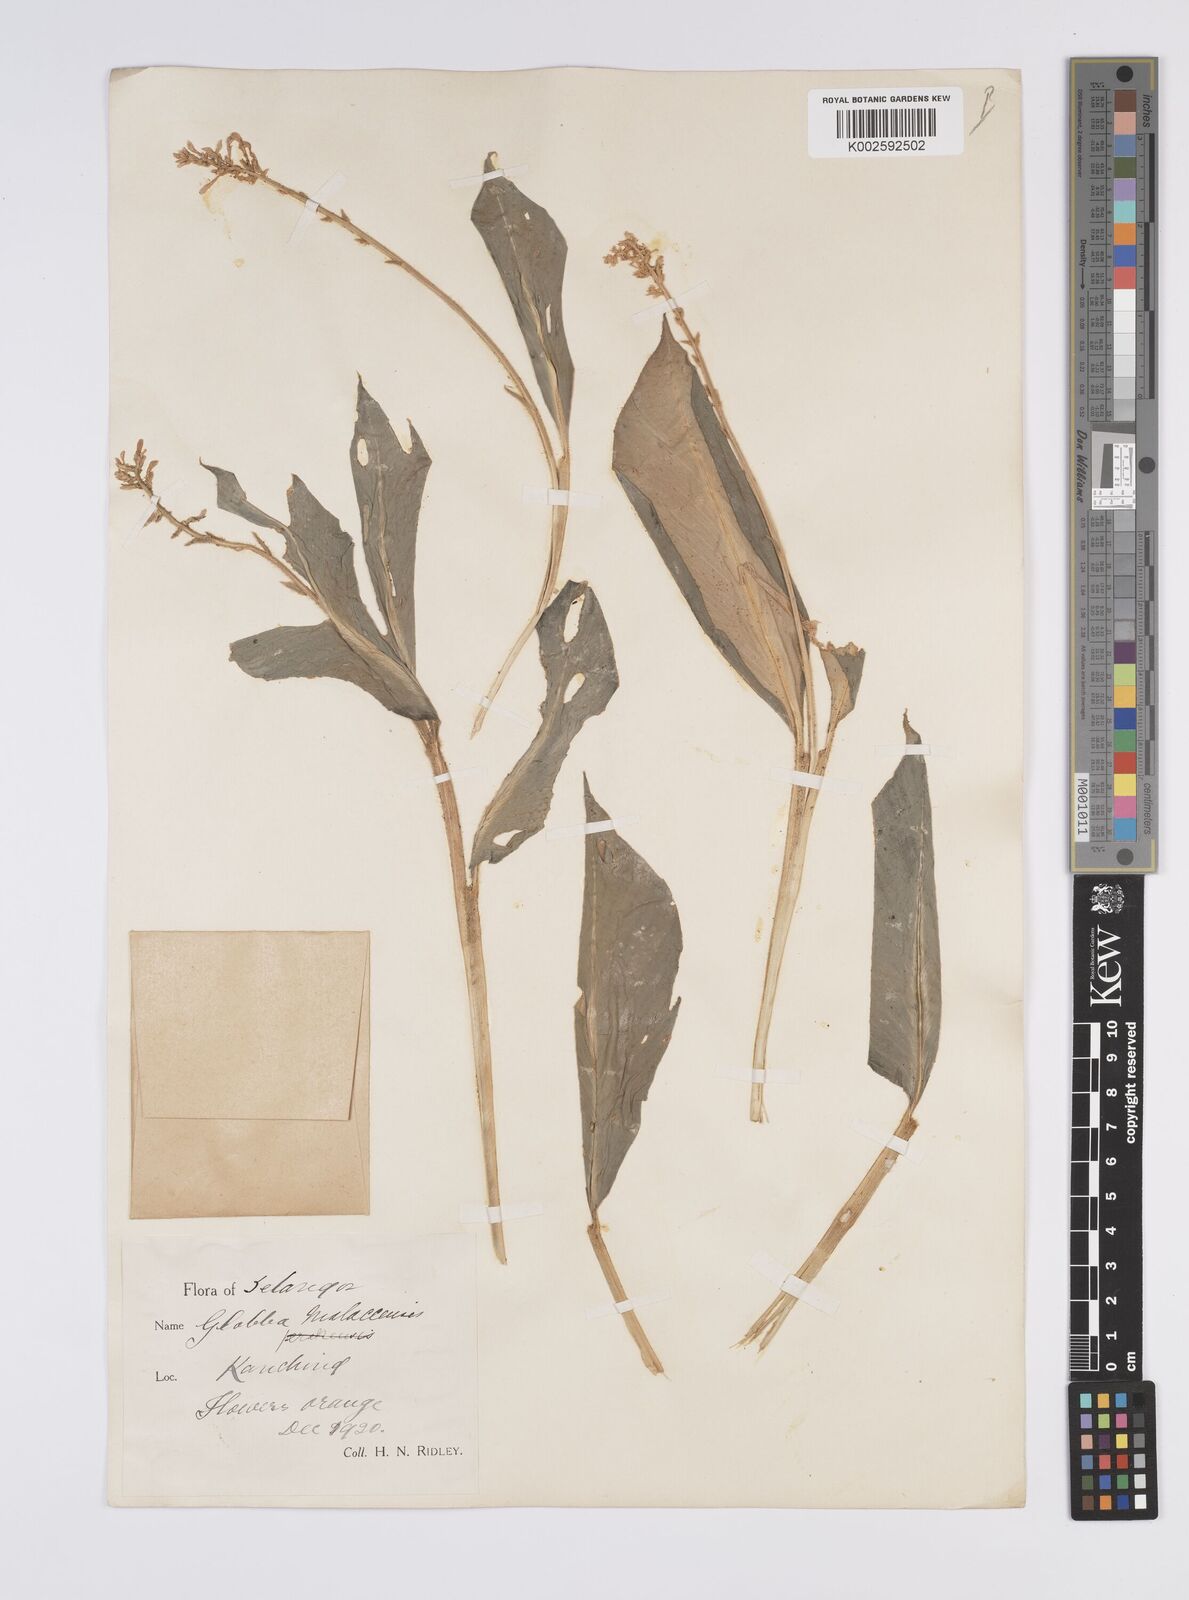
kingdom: Plantae
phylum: Tracheophyta
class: Liliopsida
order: Zingiberales
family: Zingiberaceae
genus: Globba
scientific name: Globba aurantiaca
